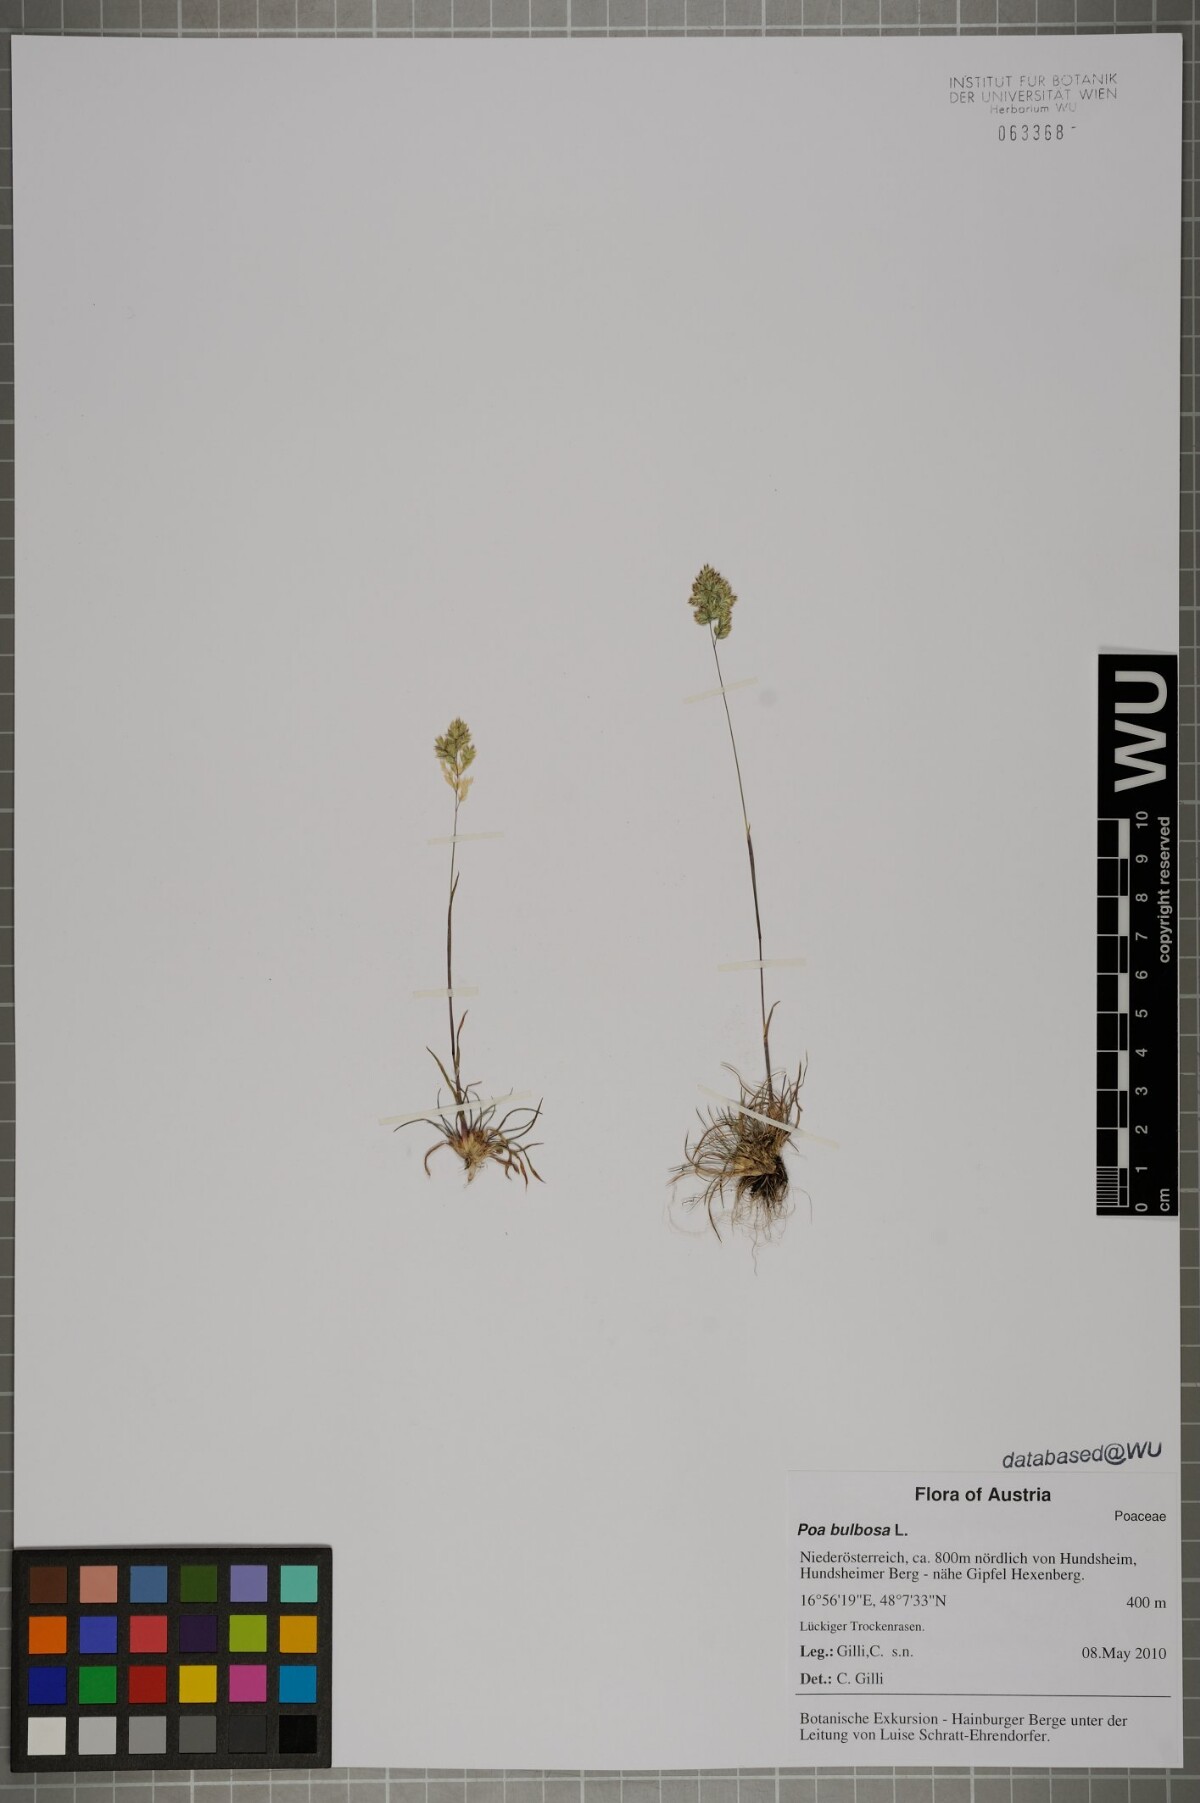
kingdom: Plantae
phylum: Tracheophyta
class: Liliopsida
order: Poales
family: Poaceae
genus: Poa
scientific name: Poa bulbosa
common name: Bulbous bluegrass
